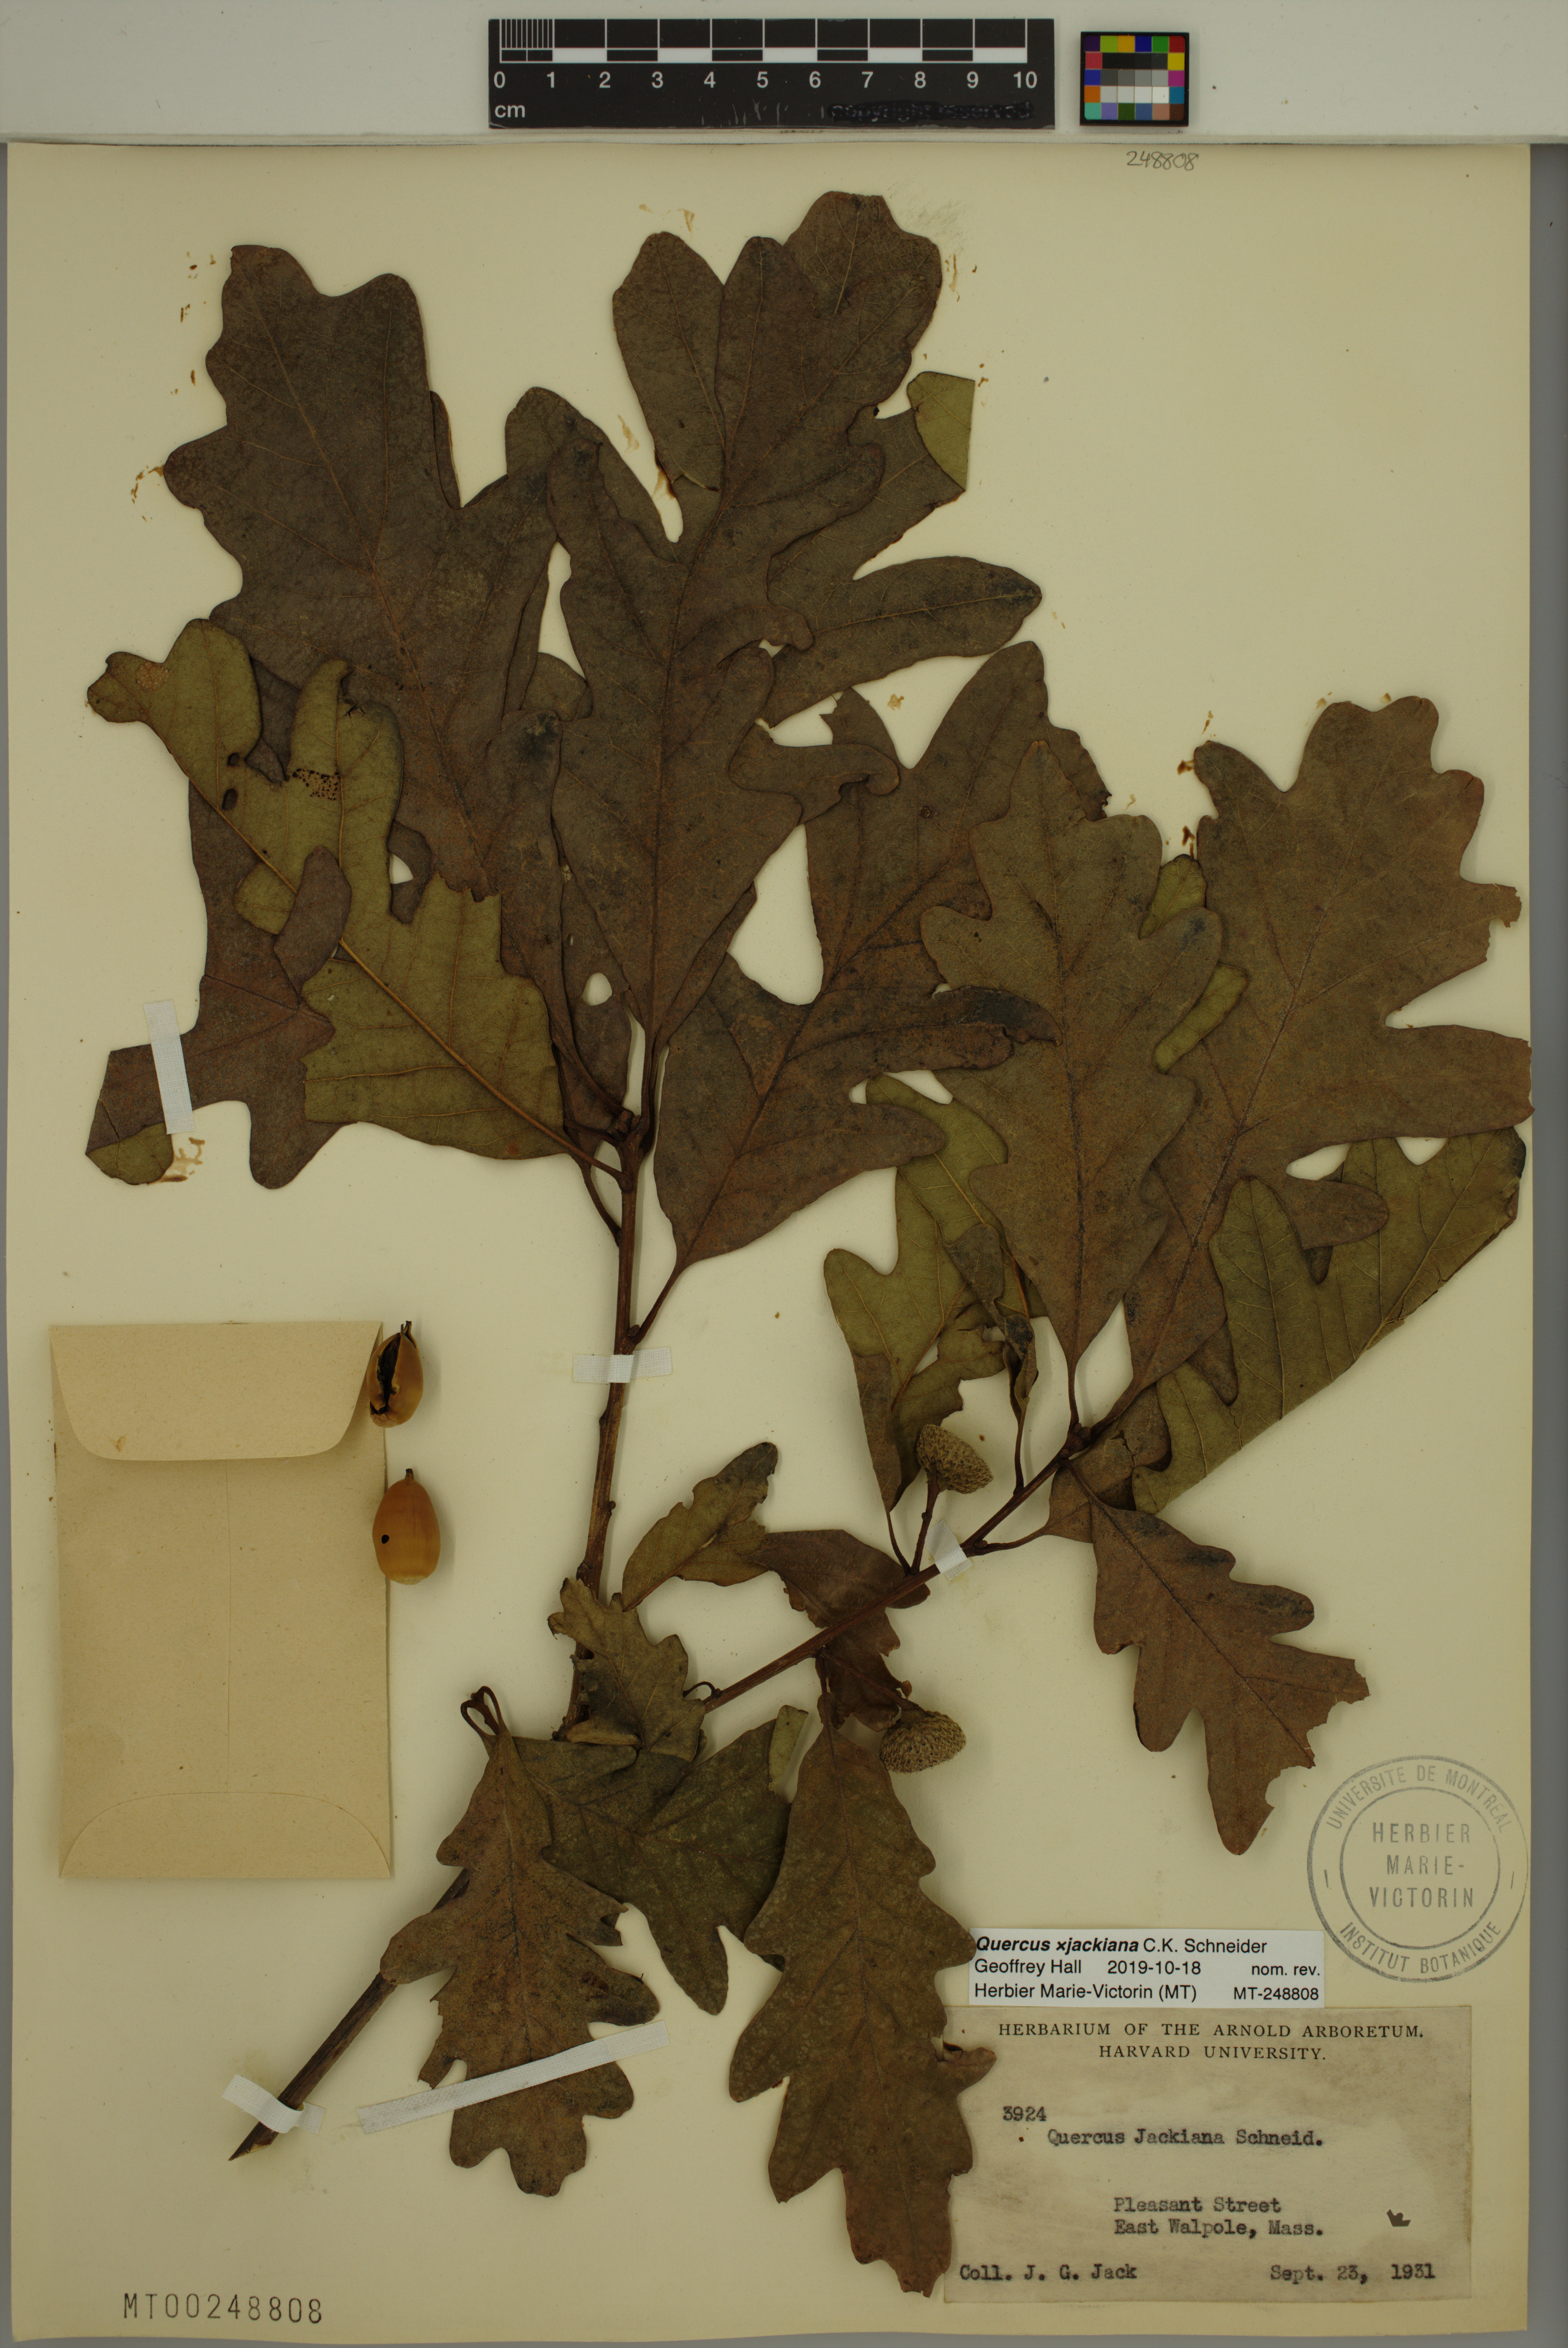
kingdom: Plantae
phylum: Tracheophyta
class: Magnoliopsida
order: Fagales
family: Fagaceae
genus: Quercus
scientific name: Quercus jackiana
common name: Jack's oak
